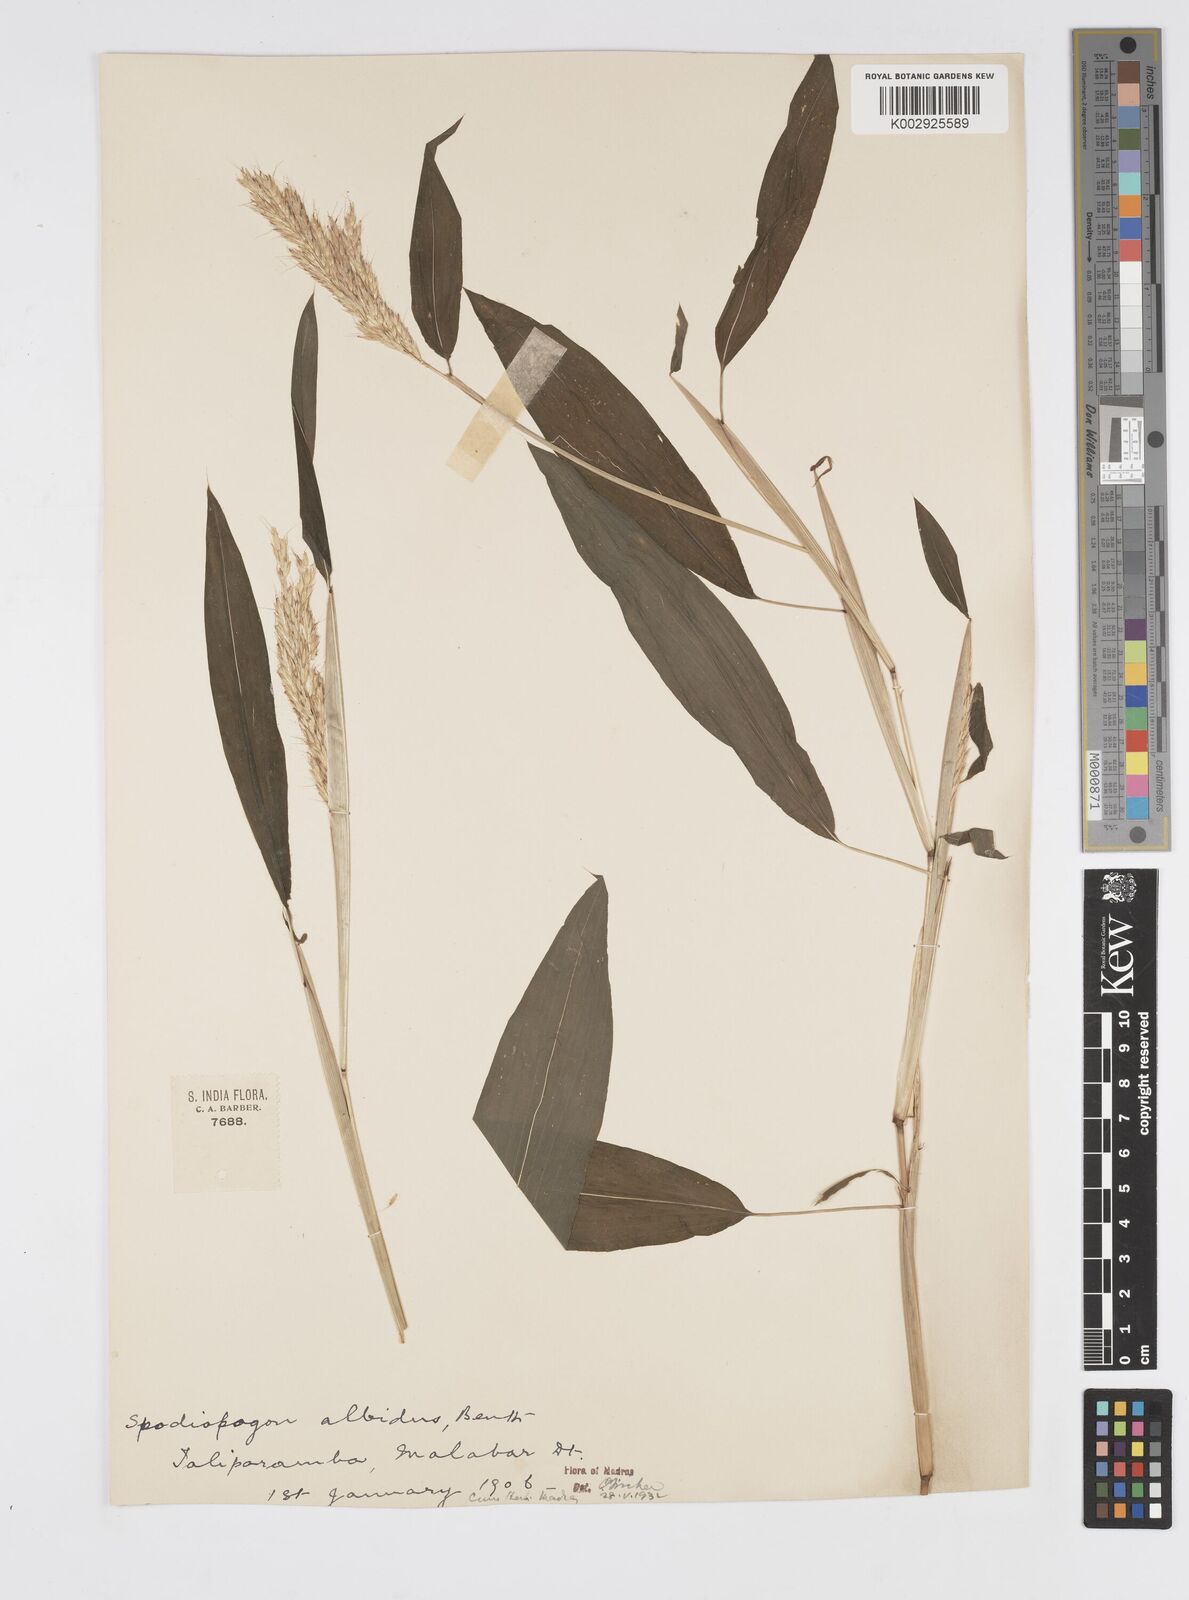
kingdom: Plantae
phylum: Tracheophyta
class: Liliopsida
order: Poales
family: Poaceae
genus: Spodiopogon
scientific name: Spodiopogon rhizophorus
